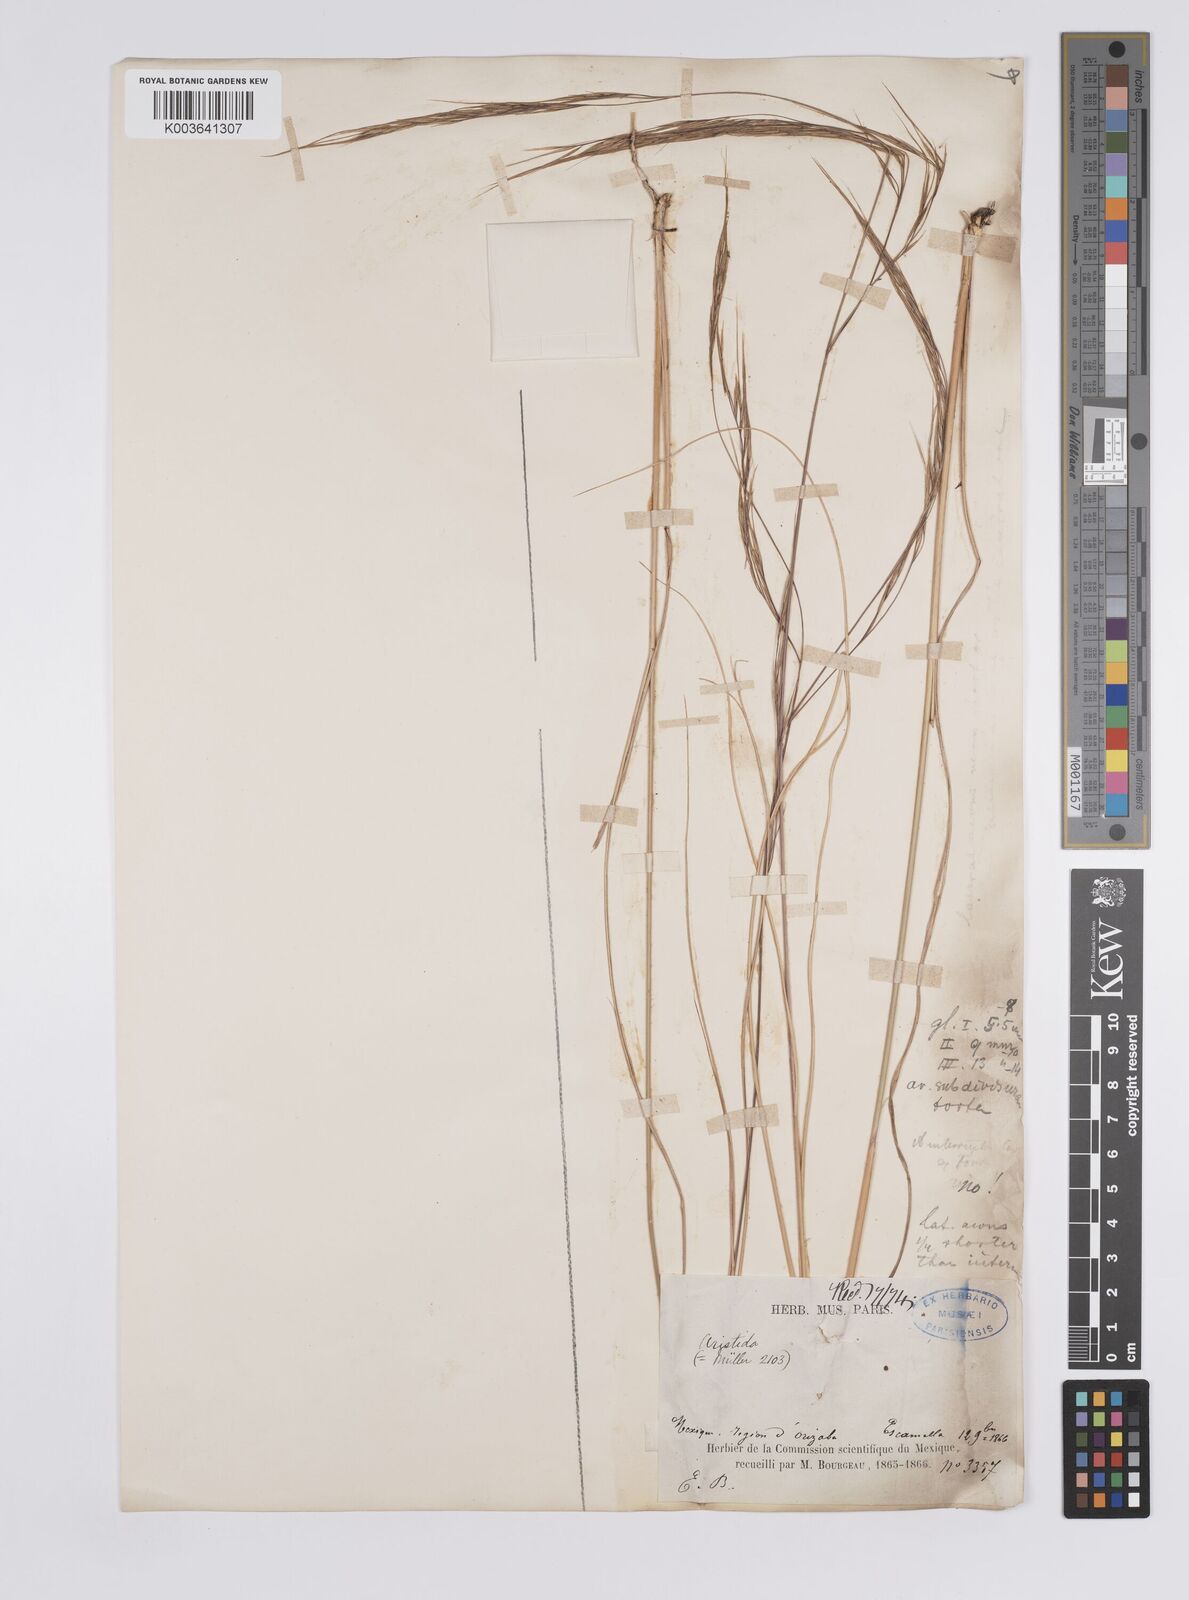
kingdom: Plantae
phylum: Tracheophyta
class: Liliopsida
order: Poales
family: Poaceae
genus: Aristida
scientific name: Aristida laxa
